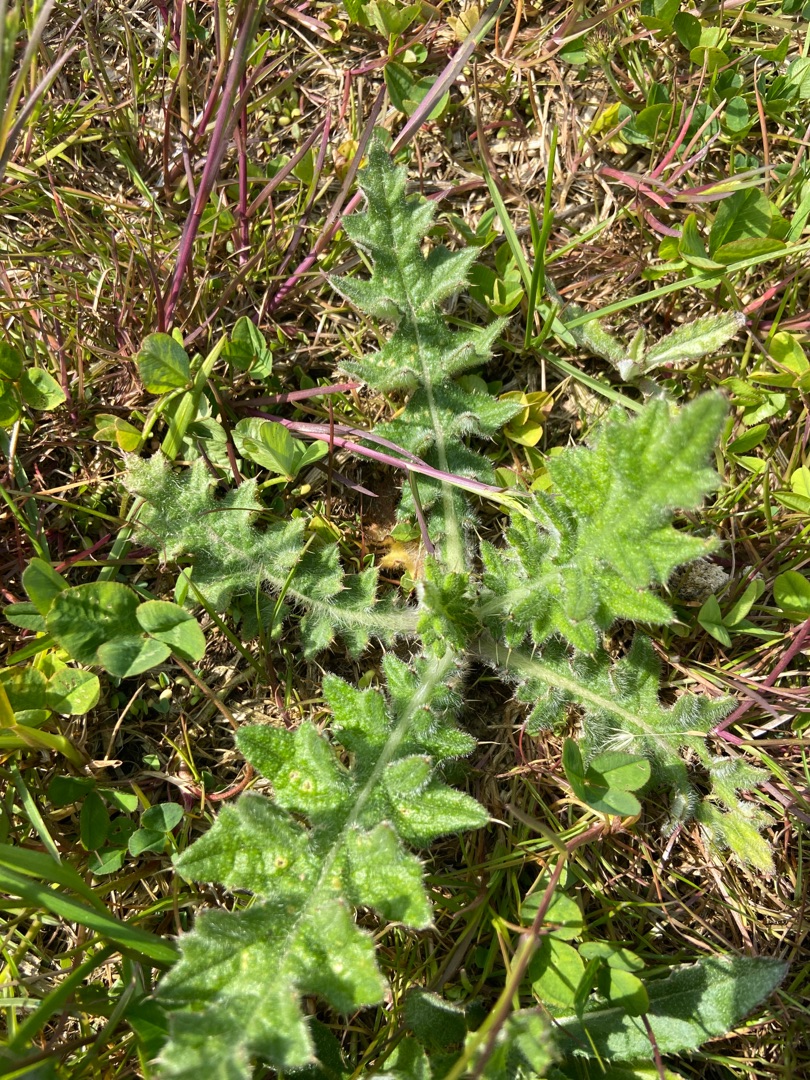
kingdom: Plantae
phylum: Tracheophyta
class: Magnoliopsida
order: Asterales
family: Asteraceae
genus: Cirsium
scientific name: Cirsium vulgare
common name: Horse-tidsel
